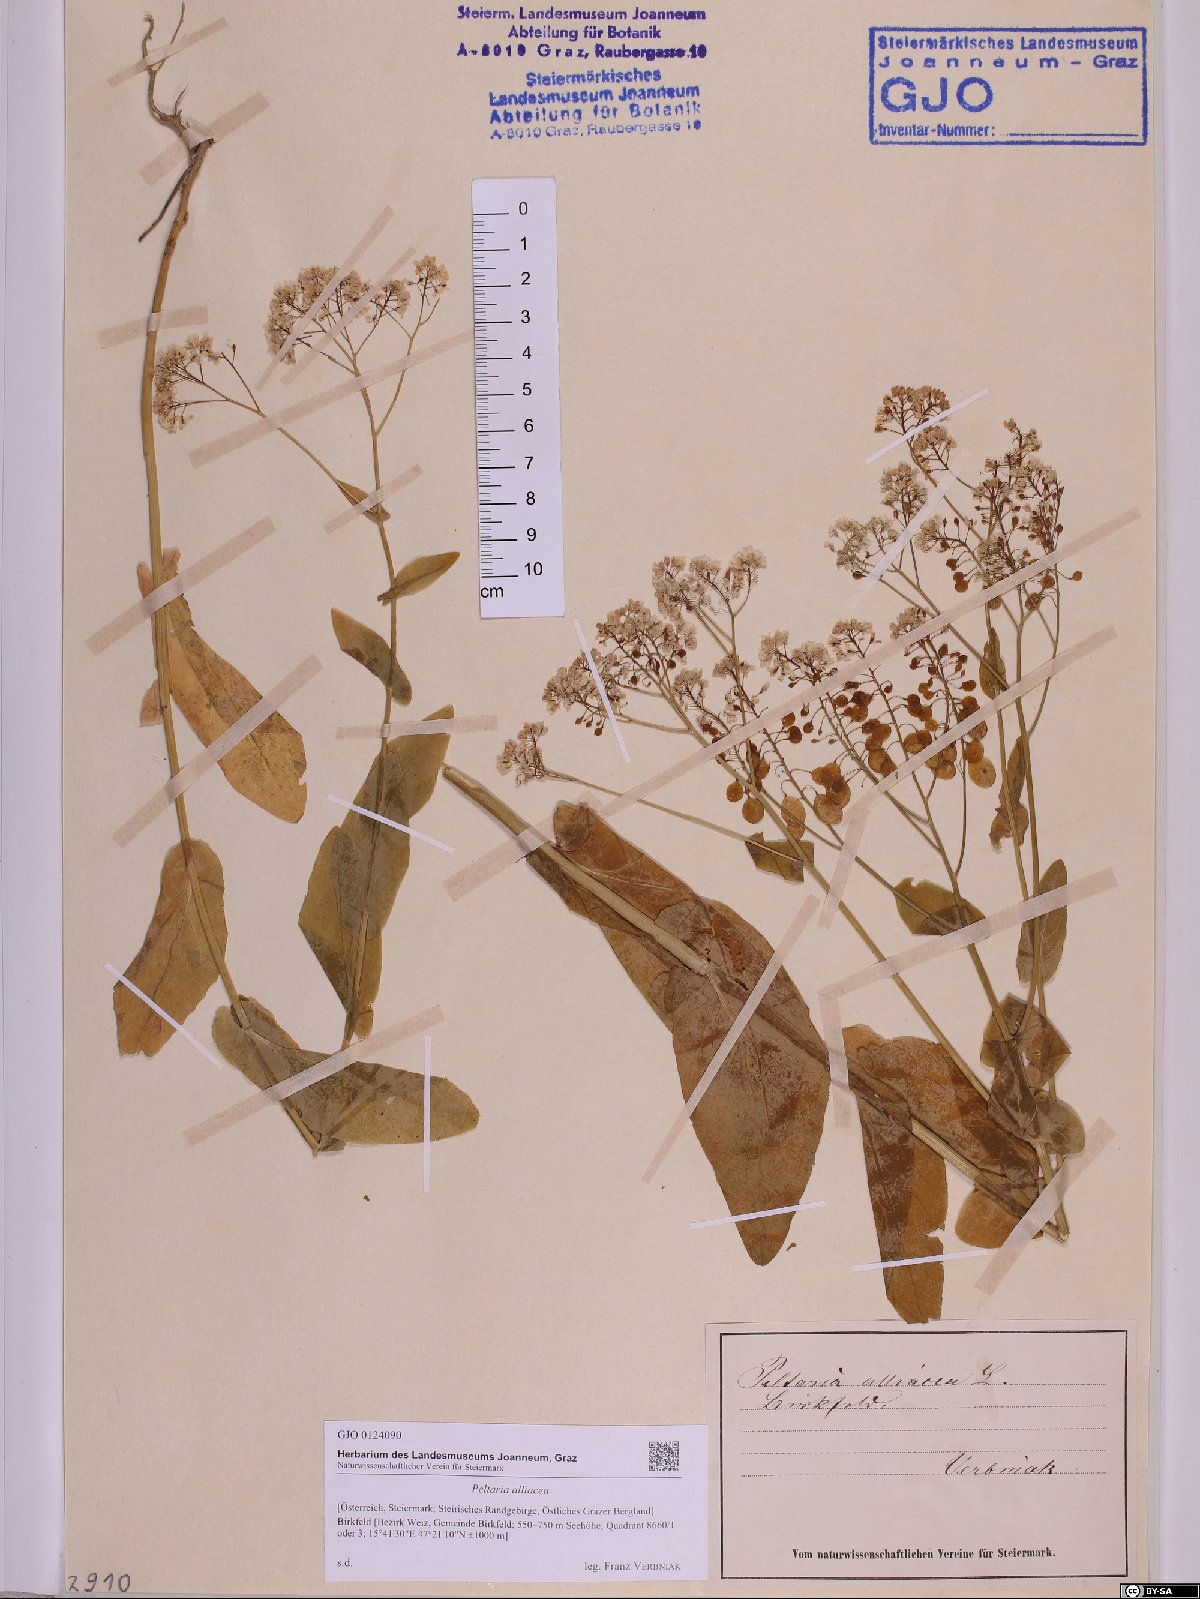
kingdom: Plantae
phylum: Tracheophyta
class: Magnoliopsida
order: Brassicales
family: Brassicaceae
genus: Peltaria
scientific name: Peltaria alliacea
